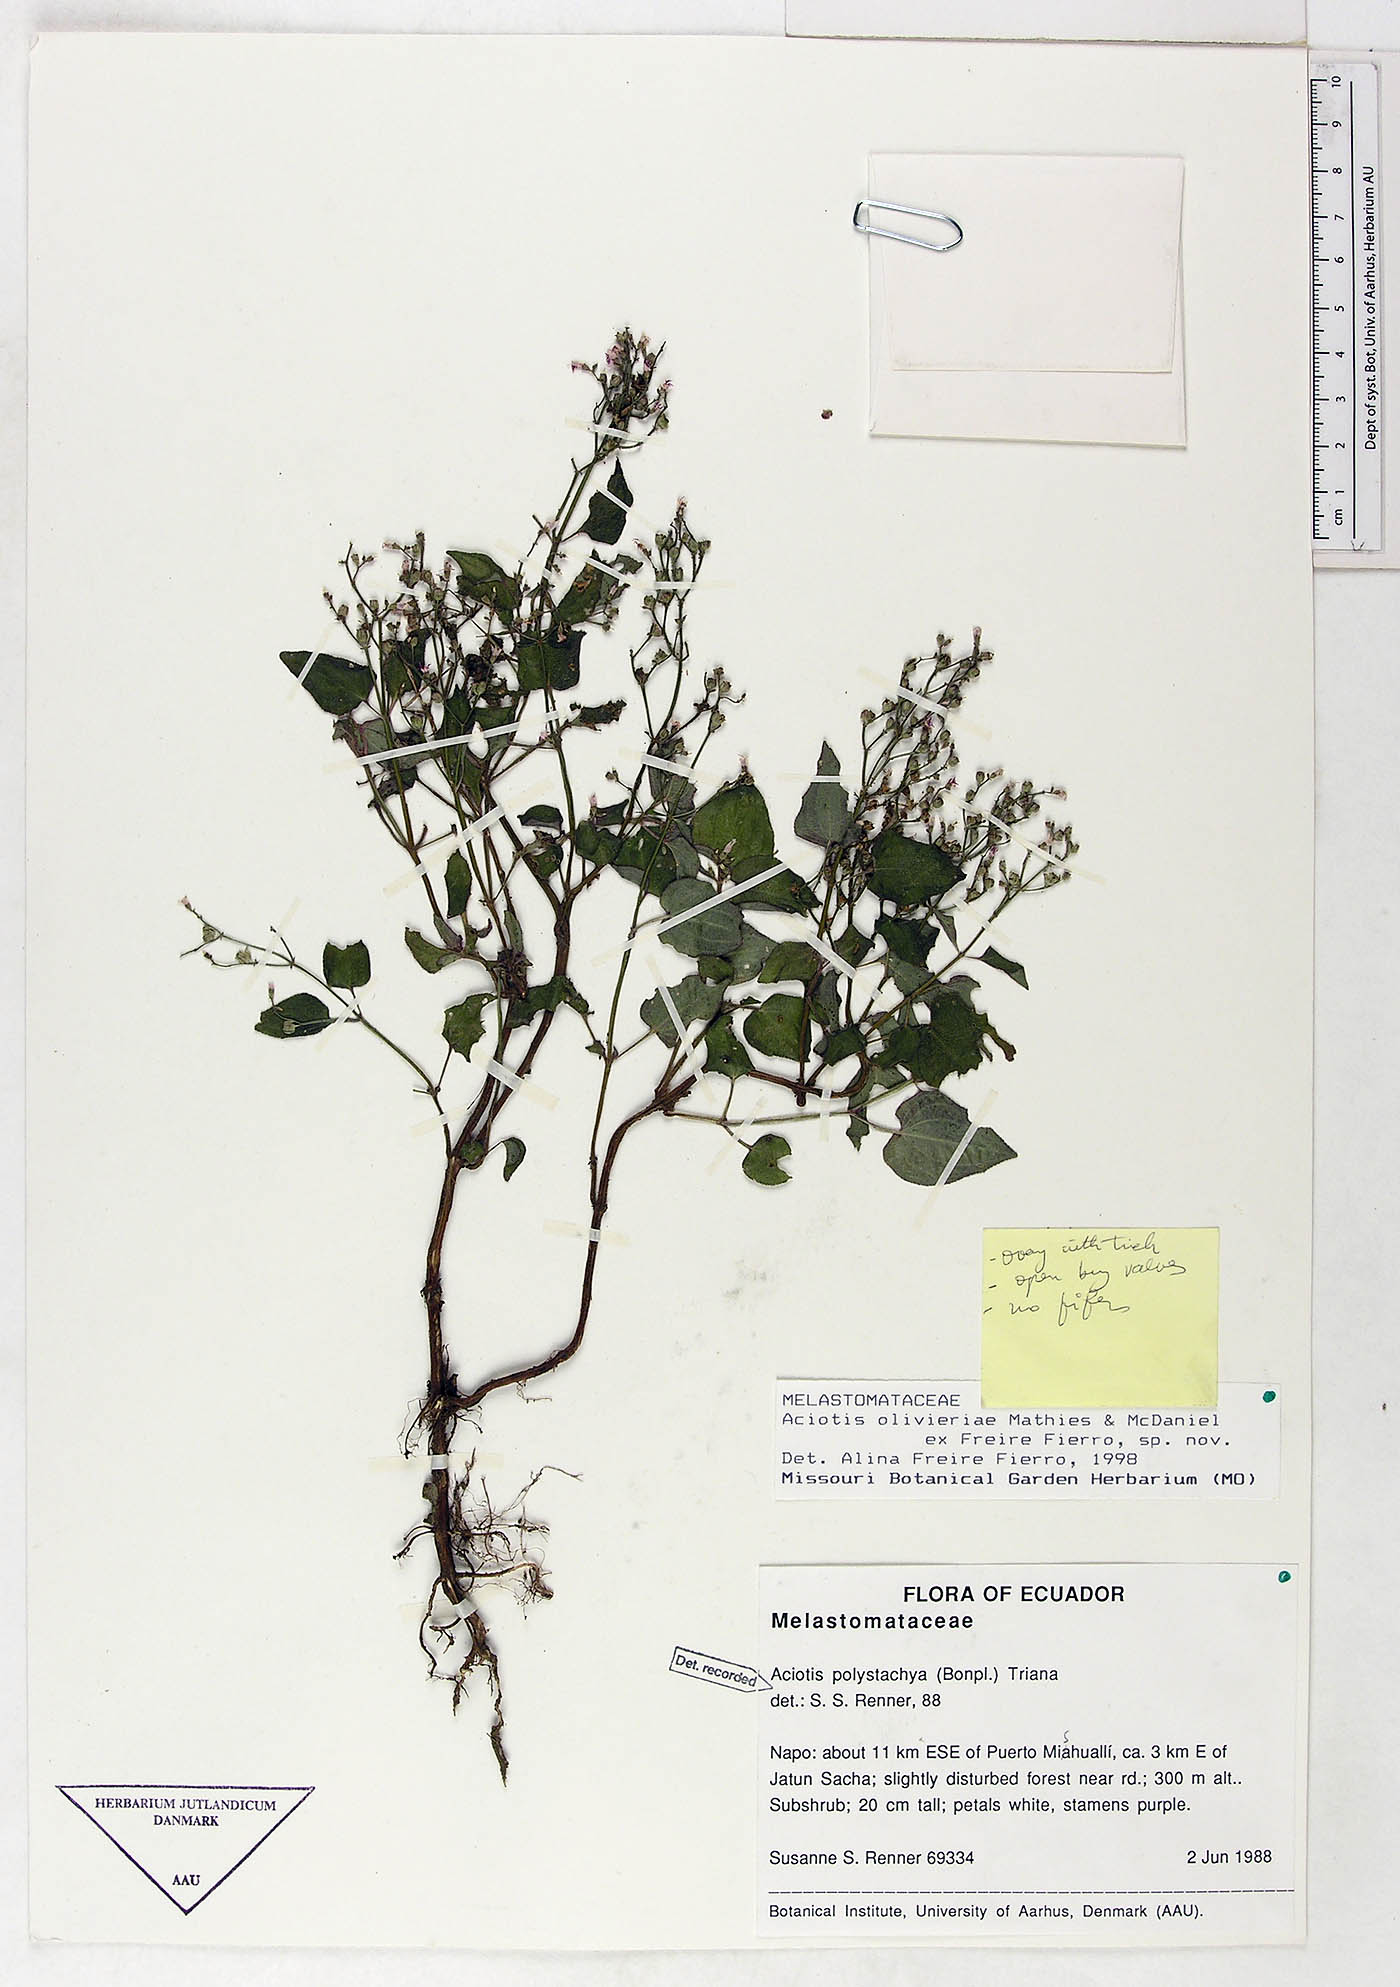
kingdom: Plantae
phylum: Tracheophyta
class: Magnoliopsida
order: Myrtales
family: Melastomataceae
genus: Aciotis
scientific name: Aciotis olivieriana
